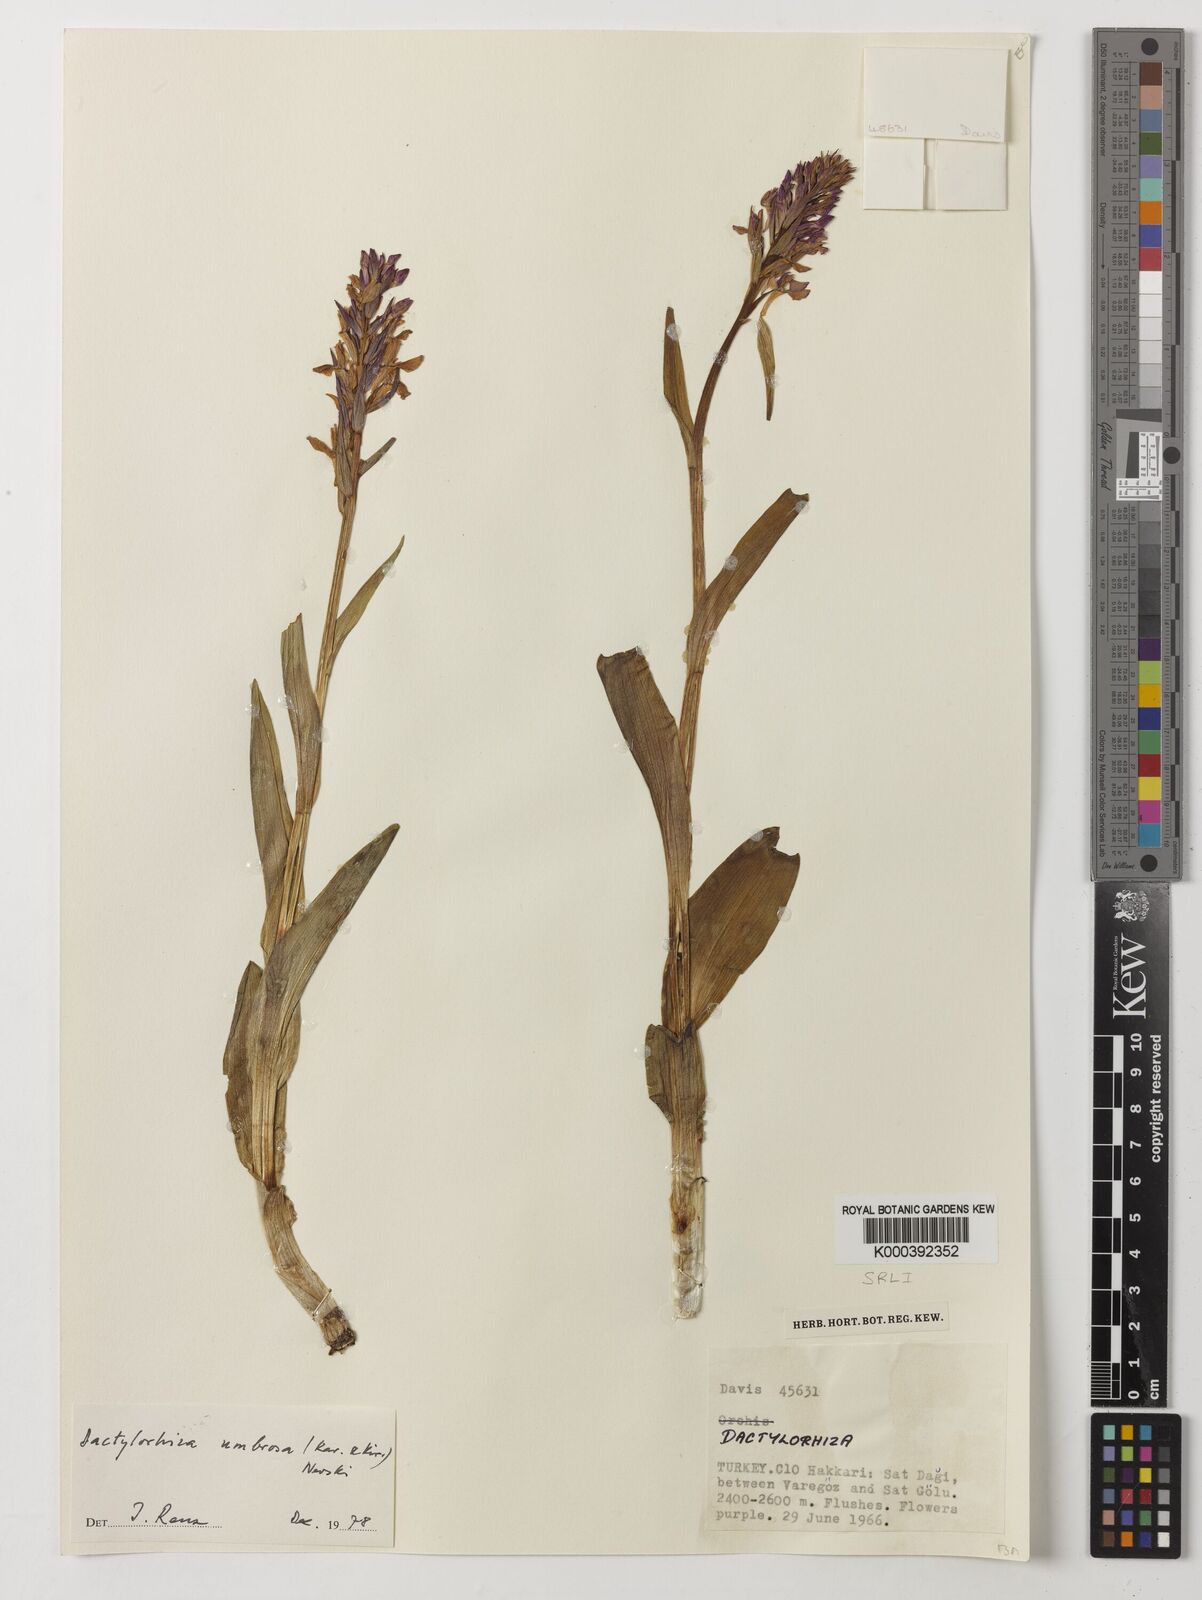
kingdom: Plantae
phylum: Tracheophyta
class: Liliopsida
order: Asparagales
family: Orchidaceae
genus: Dactylorhiza
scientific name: Dactylorhiza
